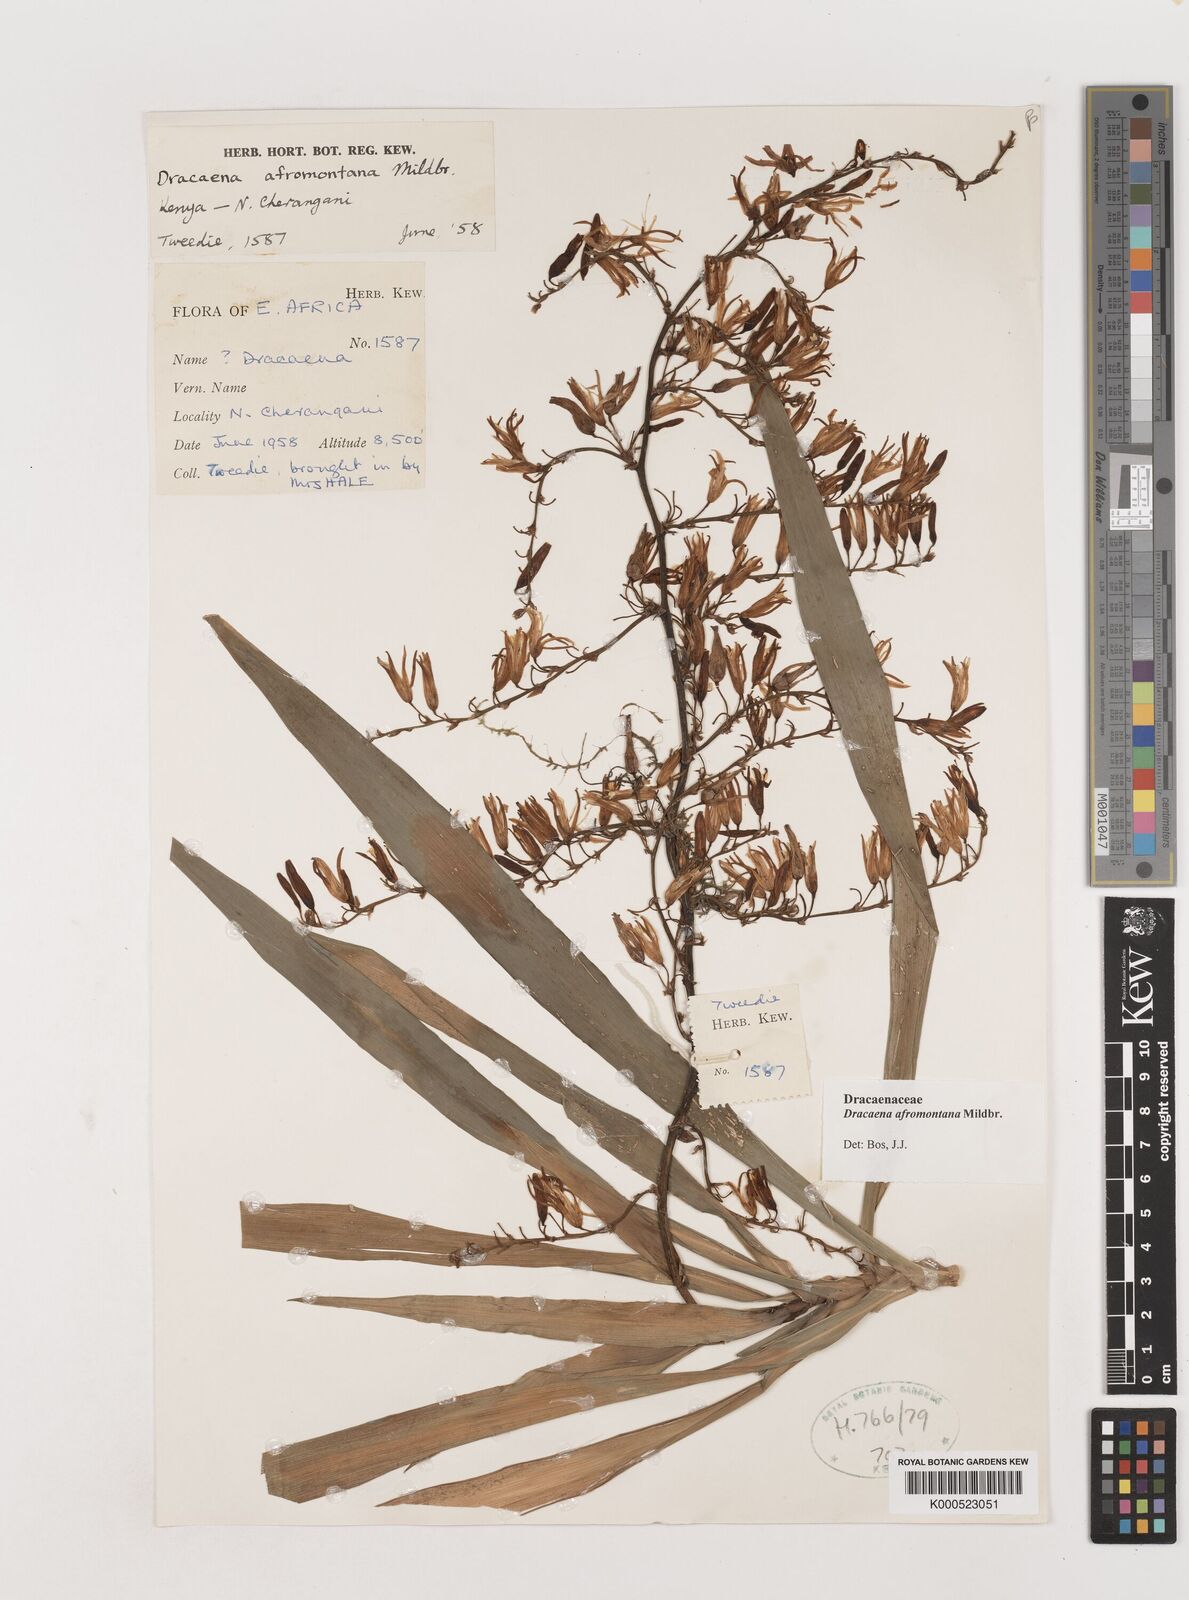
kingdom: Plantae
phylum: Tracheophyta
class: Liliopsida
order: Asparagales
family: Asparagaceae
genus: Dracaena
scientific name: Dracaena afromontana
